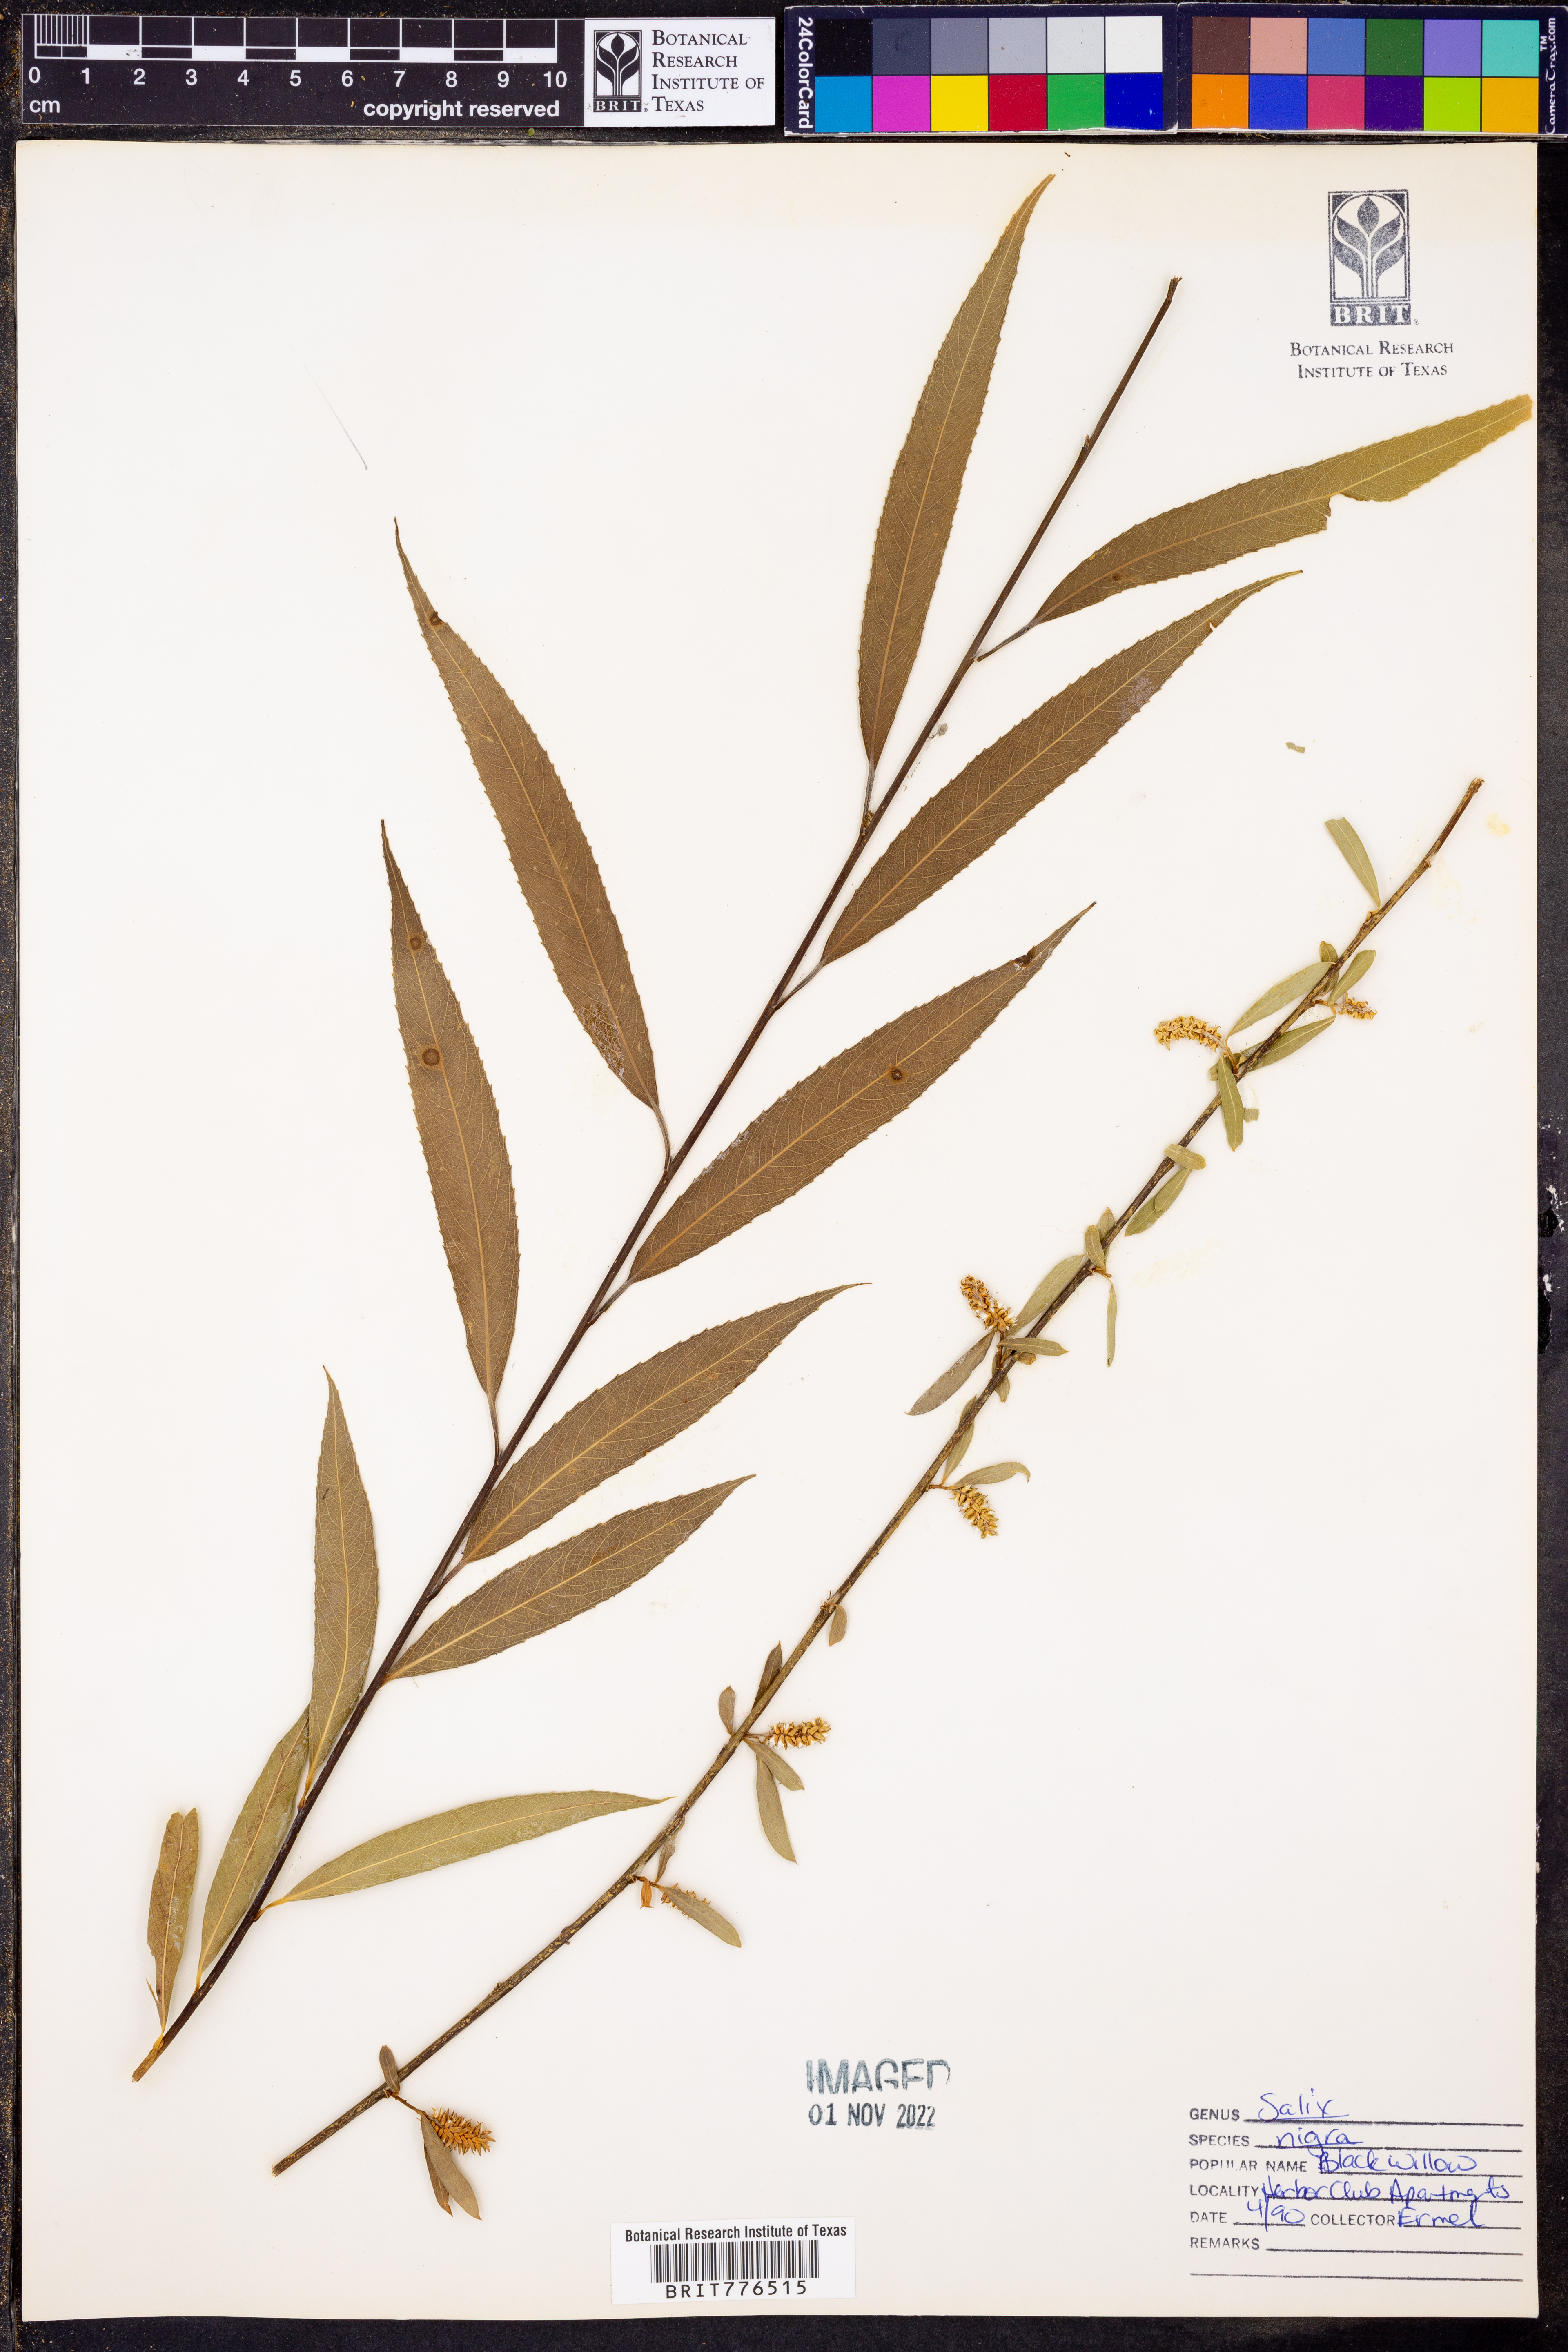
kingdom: Plantae
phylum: Tracheophyta
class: Magnoliopsida
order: Malpighiales
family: Salicaceae
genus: Salix
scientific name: Salix nigra
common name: Black willow
